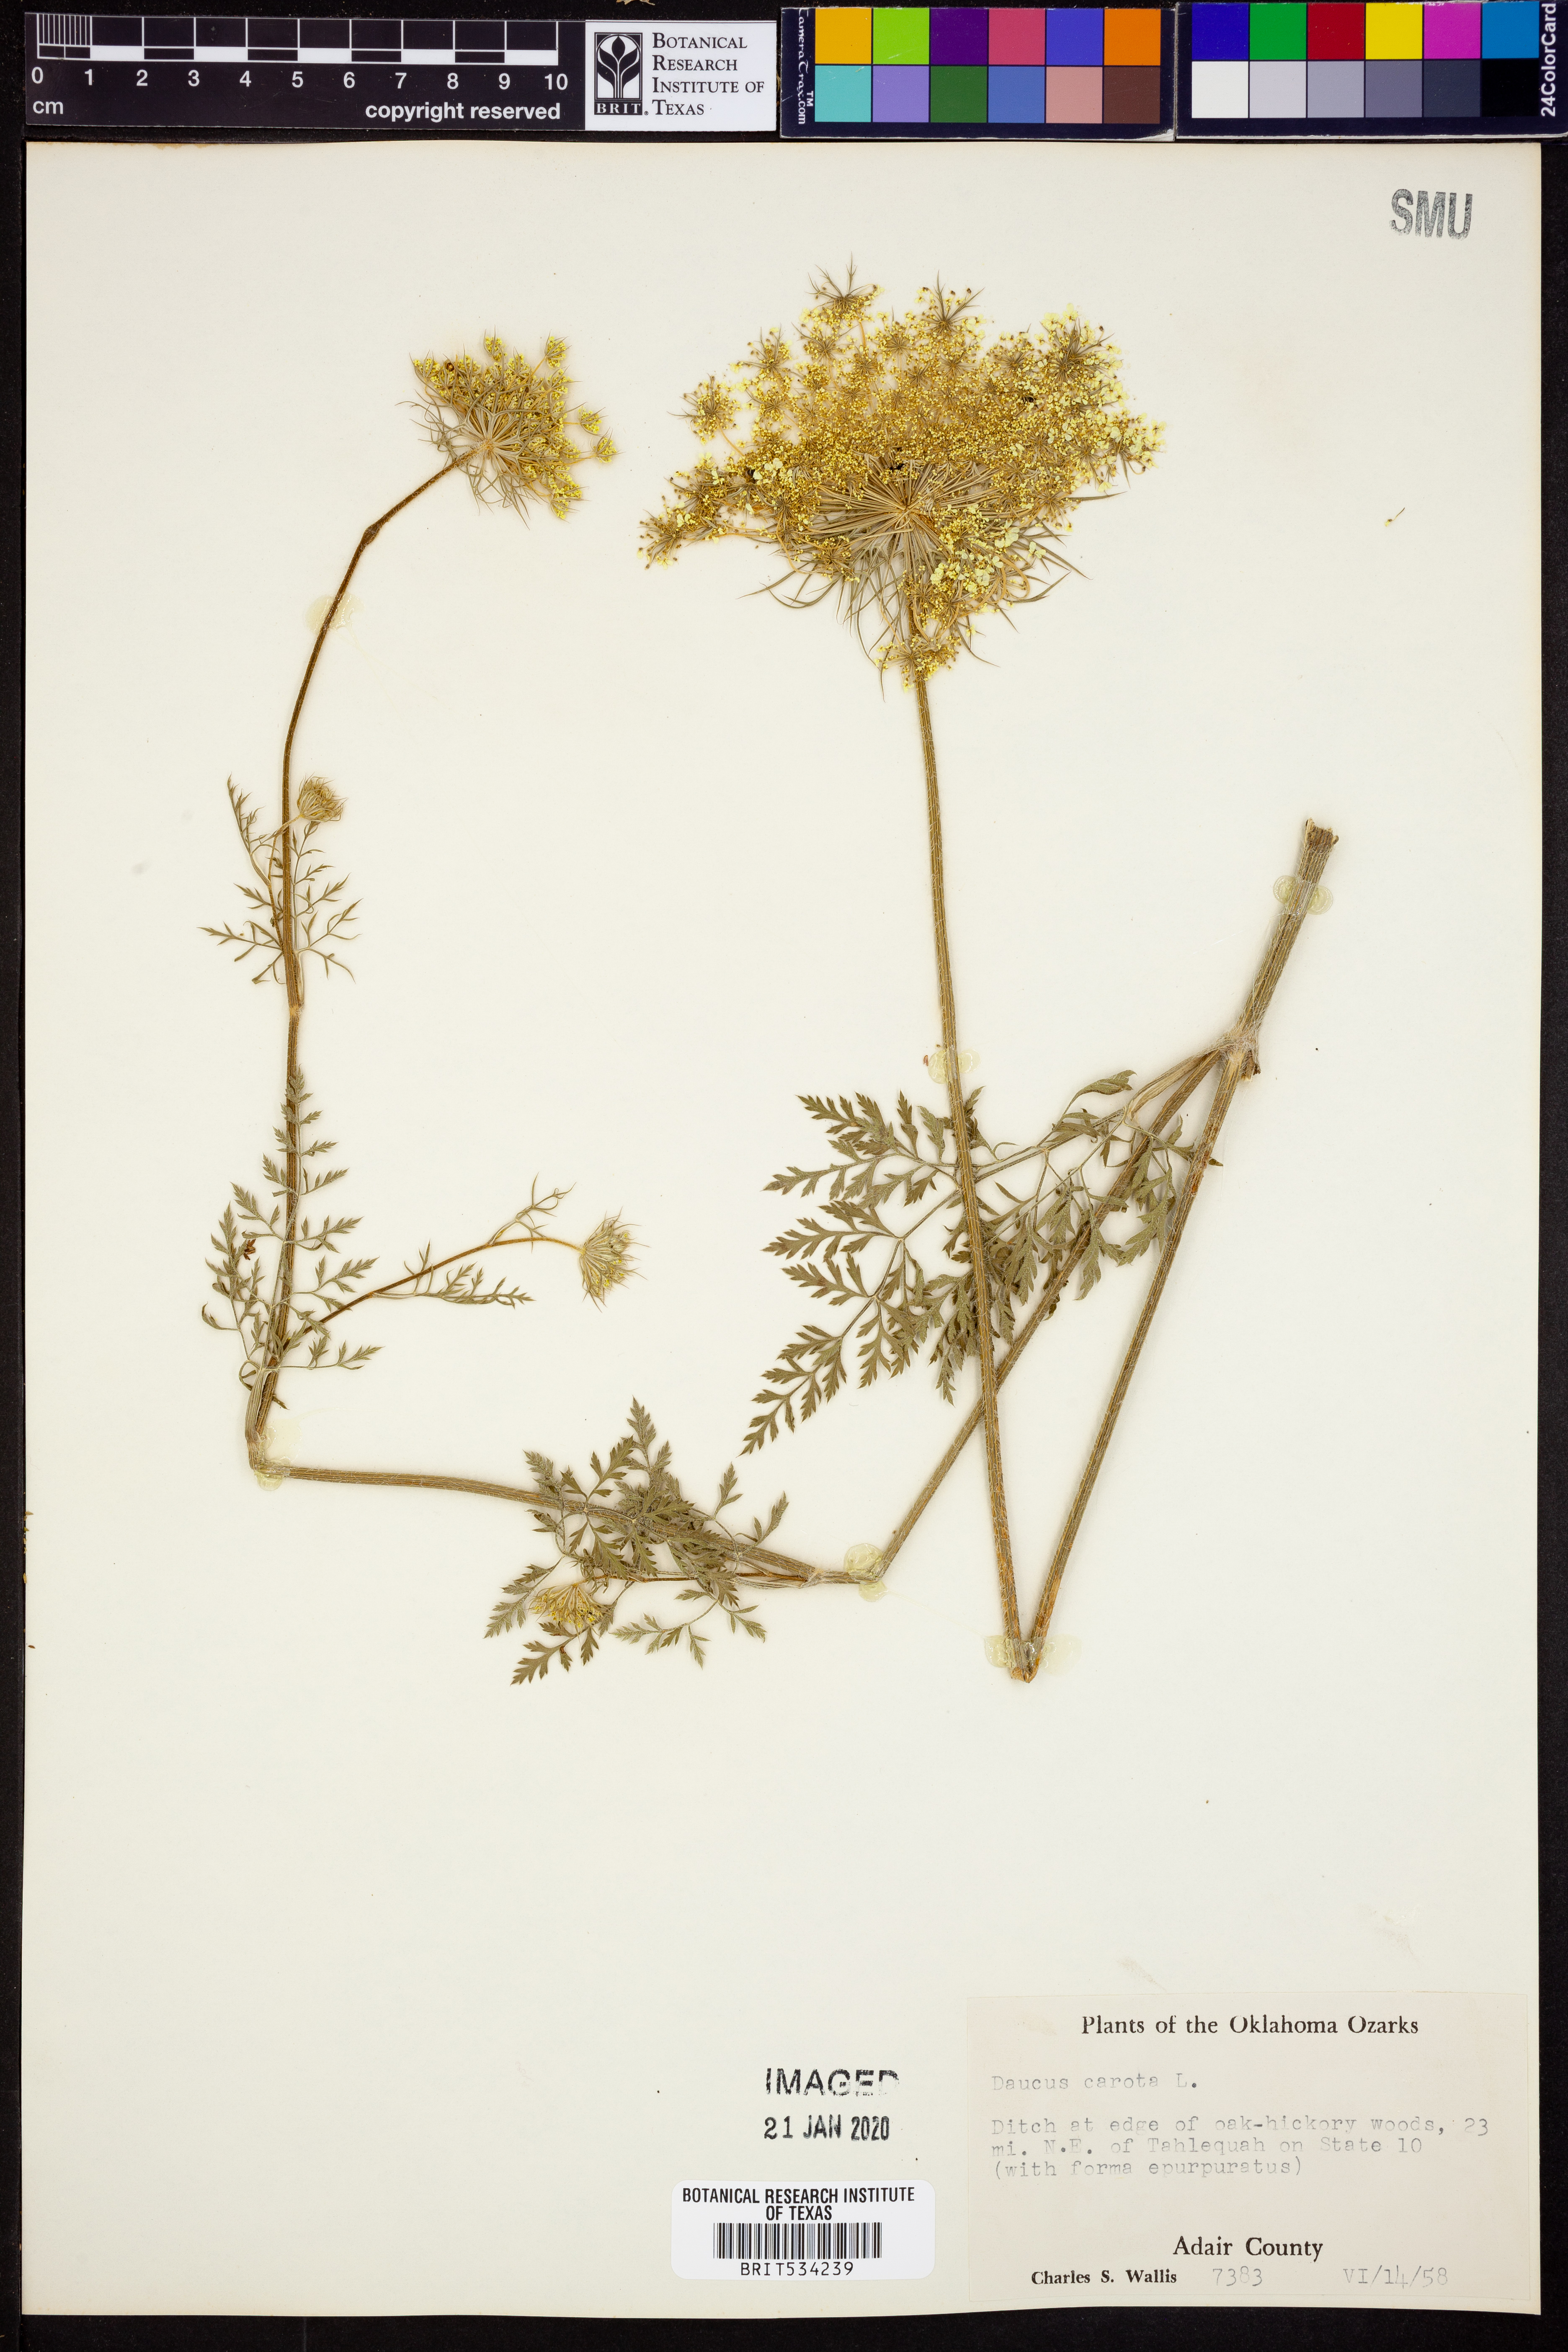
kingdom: Plantae
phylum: Tracheophyta
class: Magnoliopsida
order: Apiales
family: Apiaceae
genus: Daucus
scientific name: Daucus carota
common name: Wild carrot
